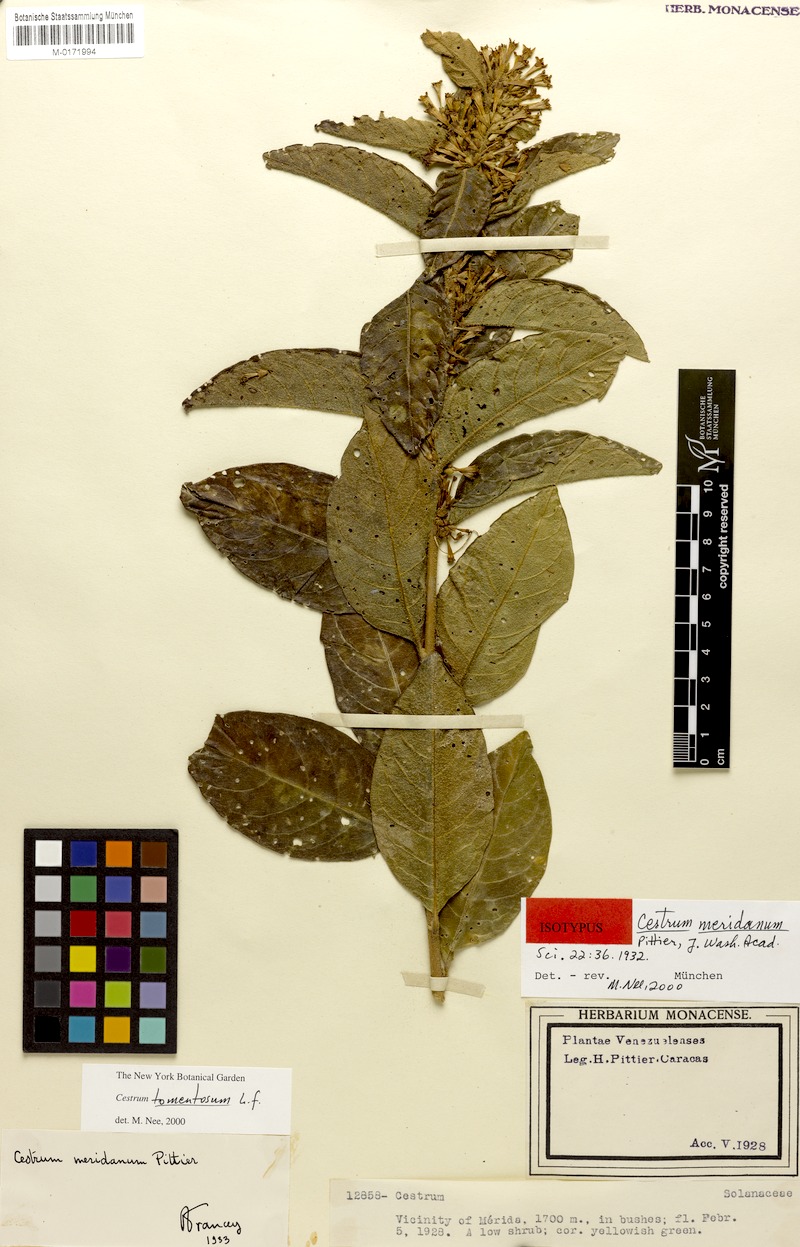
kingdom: Plantae
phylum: Tracheophyta
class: Magnoliopsida
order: Solanales
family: Solanaceae
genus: Cestrum
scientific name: Cestrum tomentosum
